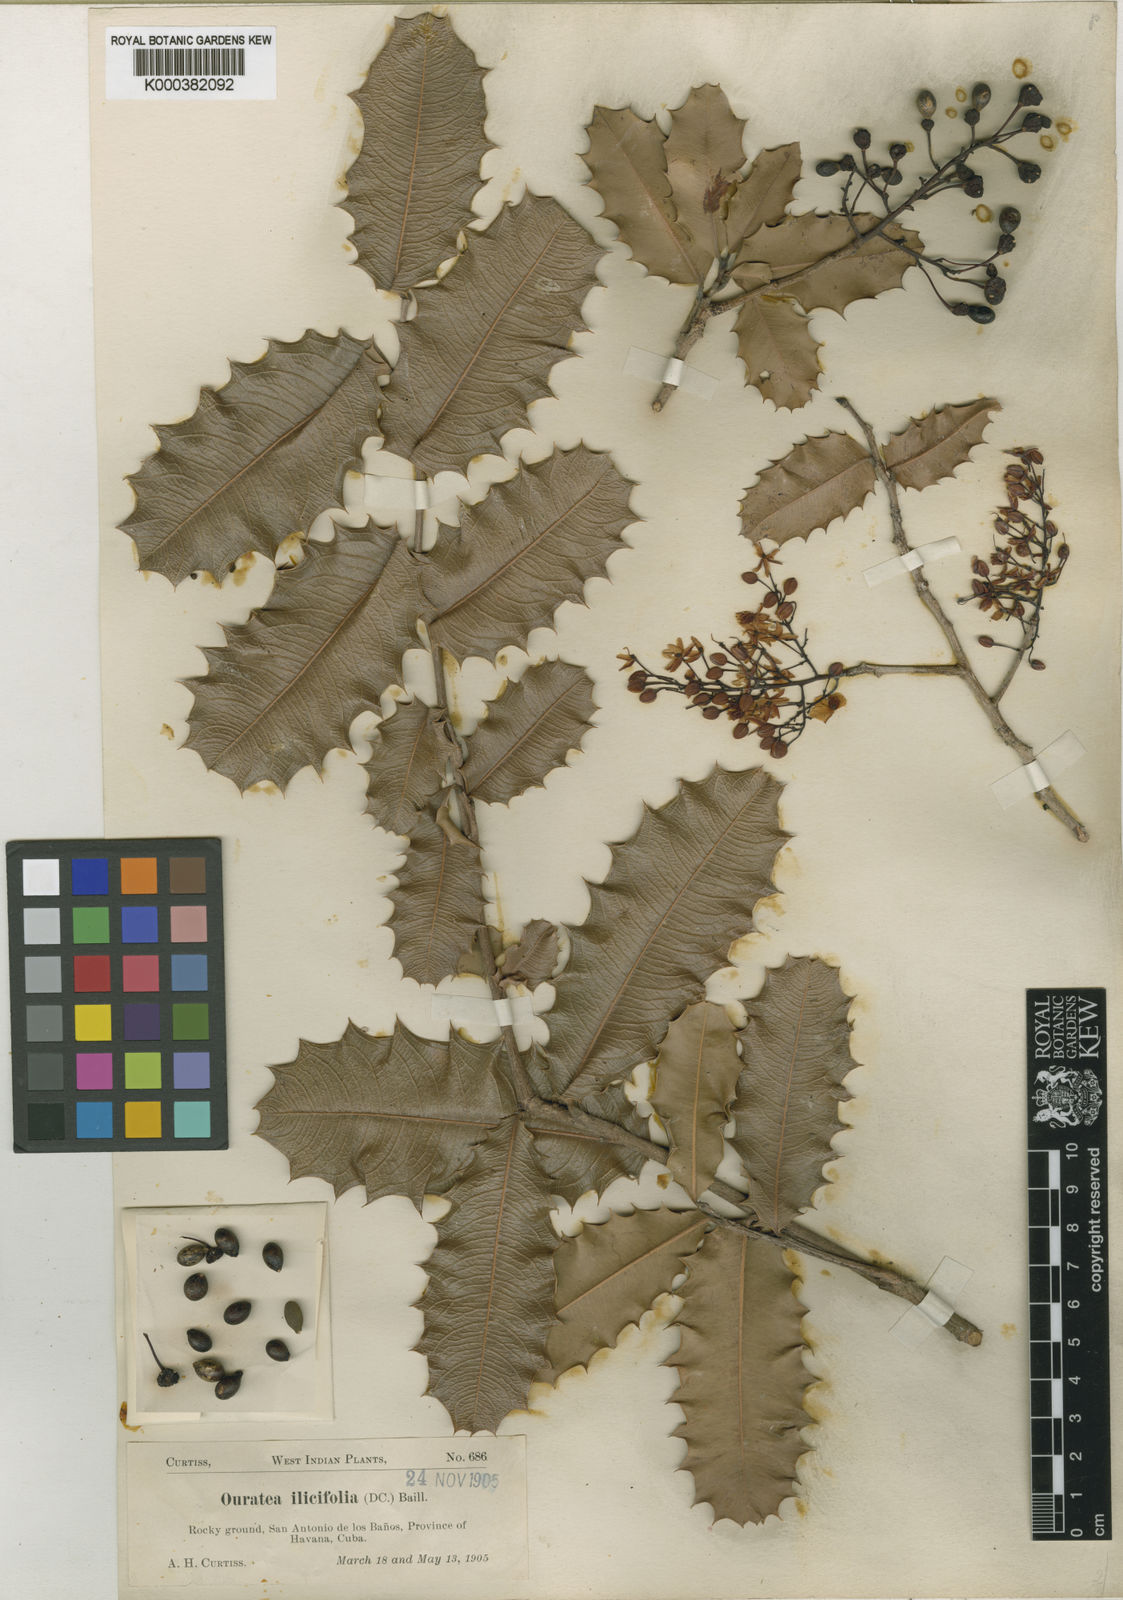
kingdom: Plantae
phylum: Tracheophyta
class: Magnoliopsida
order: Malpighiales
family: Ochnaceae
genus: Ouratea
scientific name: Ouratea agrophylla
